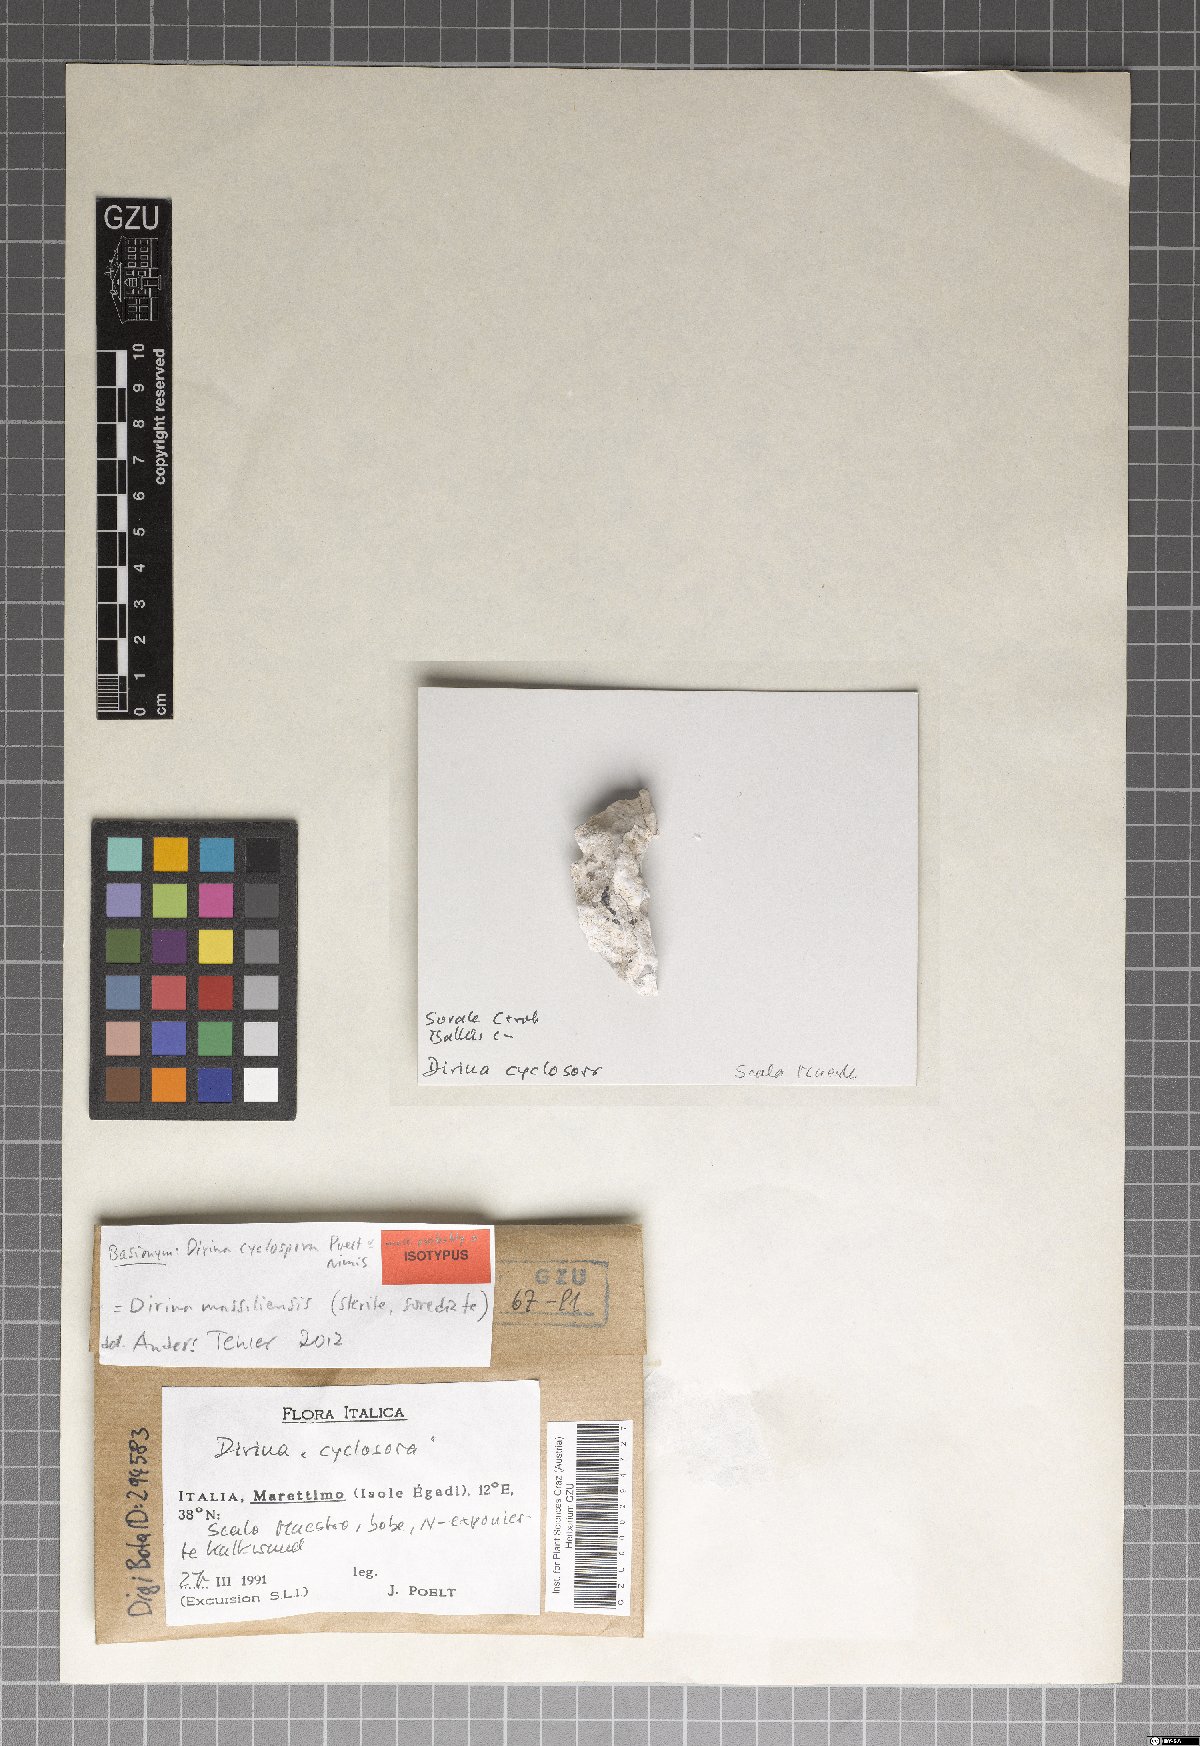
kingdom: Fungi
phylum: Ascomycota
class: Arthoniomycetes
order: Arthoniales
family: Roccellaceae
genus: Dirina
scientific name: Dirina
